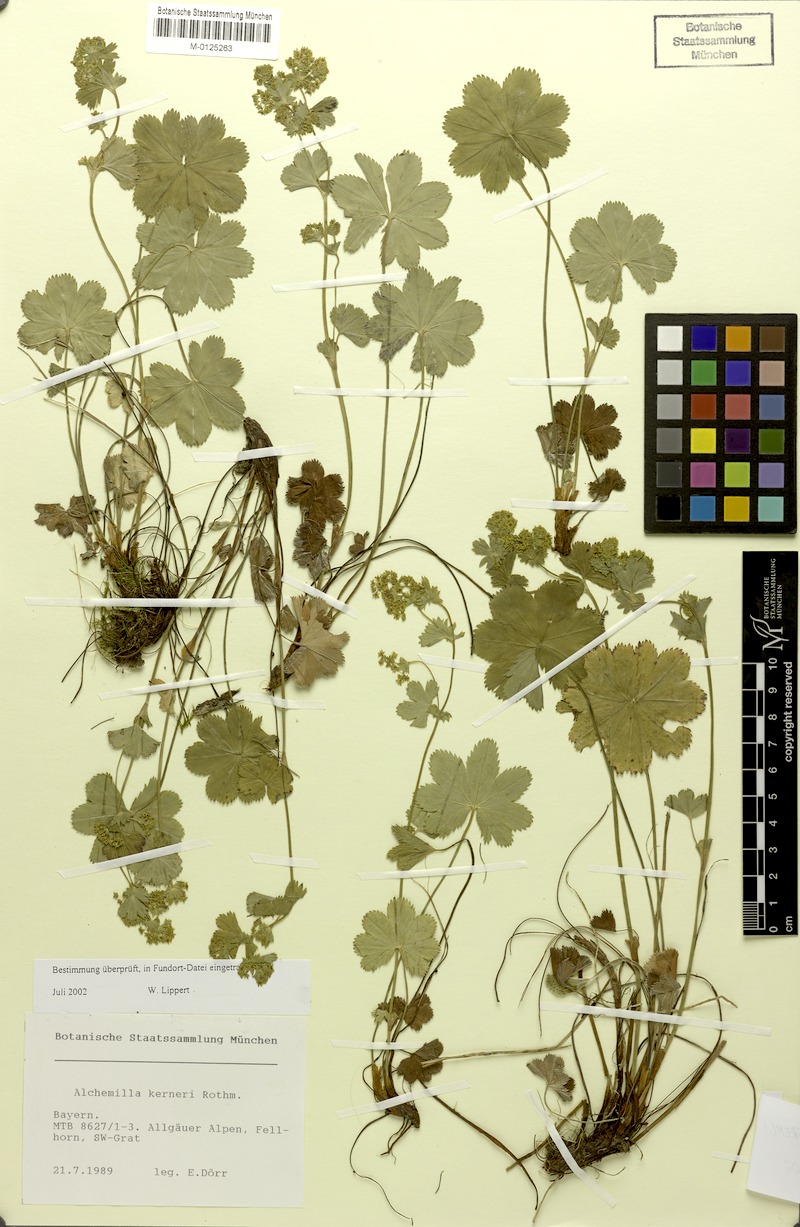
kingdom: Plantae
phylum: Tracheophyta
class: Magnoliopsida
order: Rosales
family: Rosaceae
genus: Alchemilla
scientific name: Alchemilla splendens
